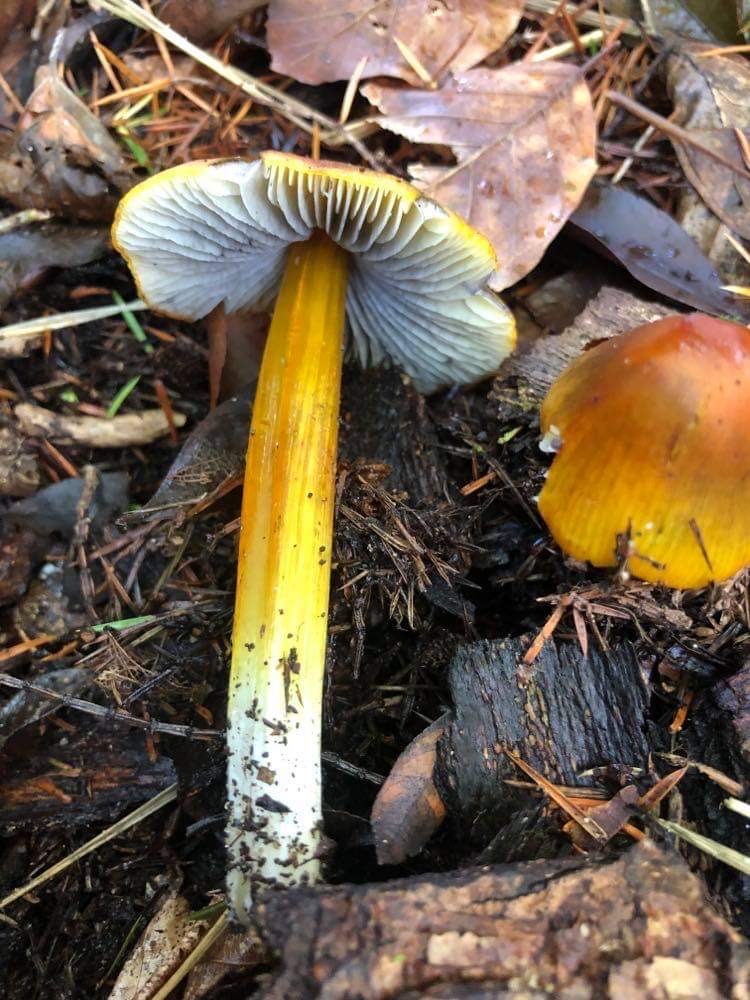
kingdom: Fungi
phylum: Basidiomycota
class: Agaricomycetes
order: Agaricales
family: Hygrophoraceae
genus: Hygrocybe
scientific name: Hygrocybe conica
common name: kegle-vokshat
